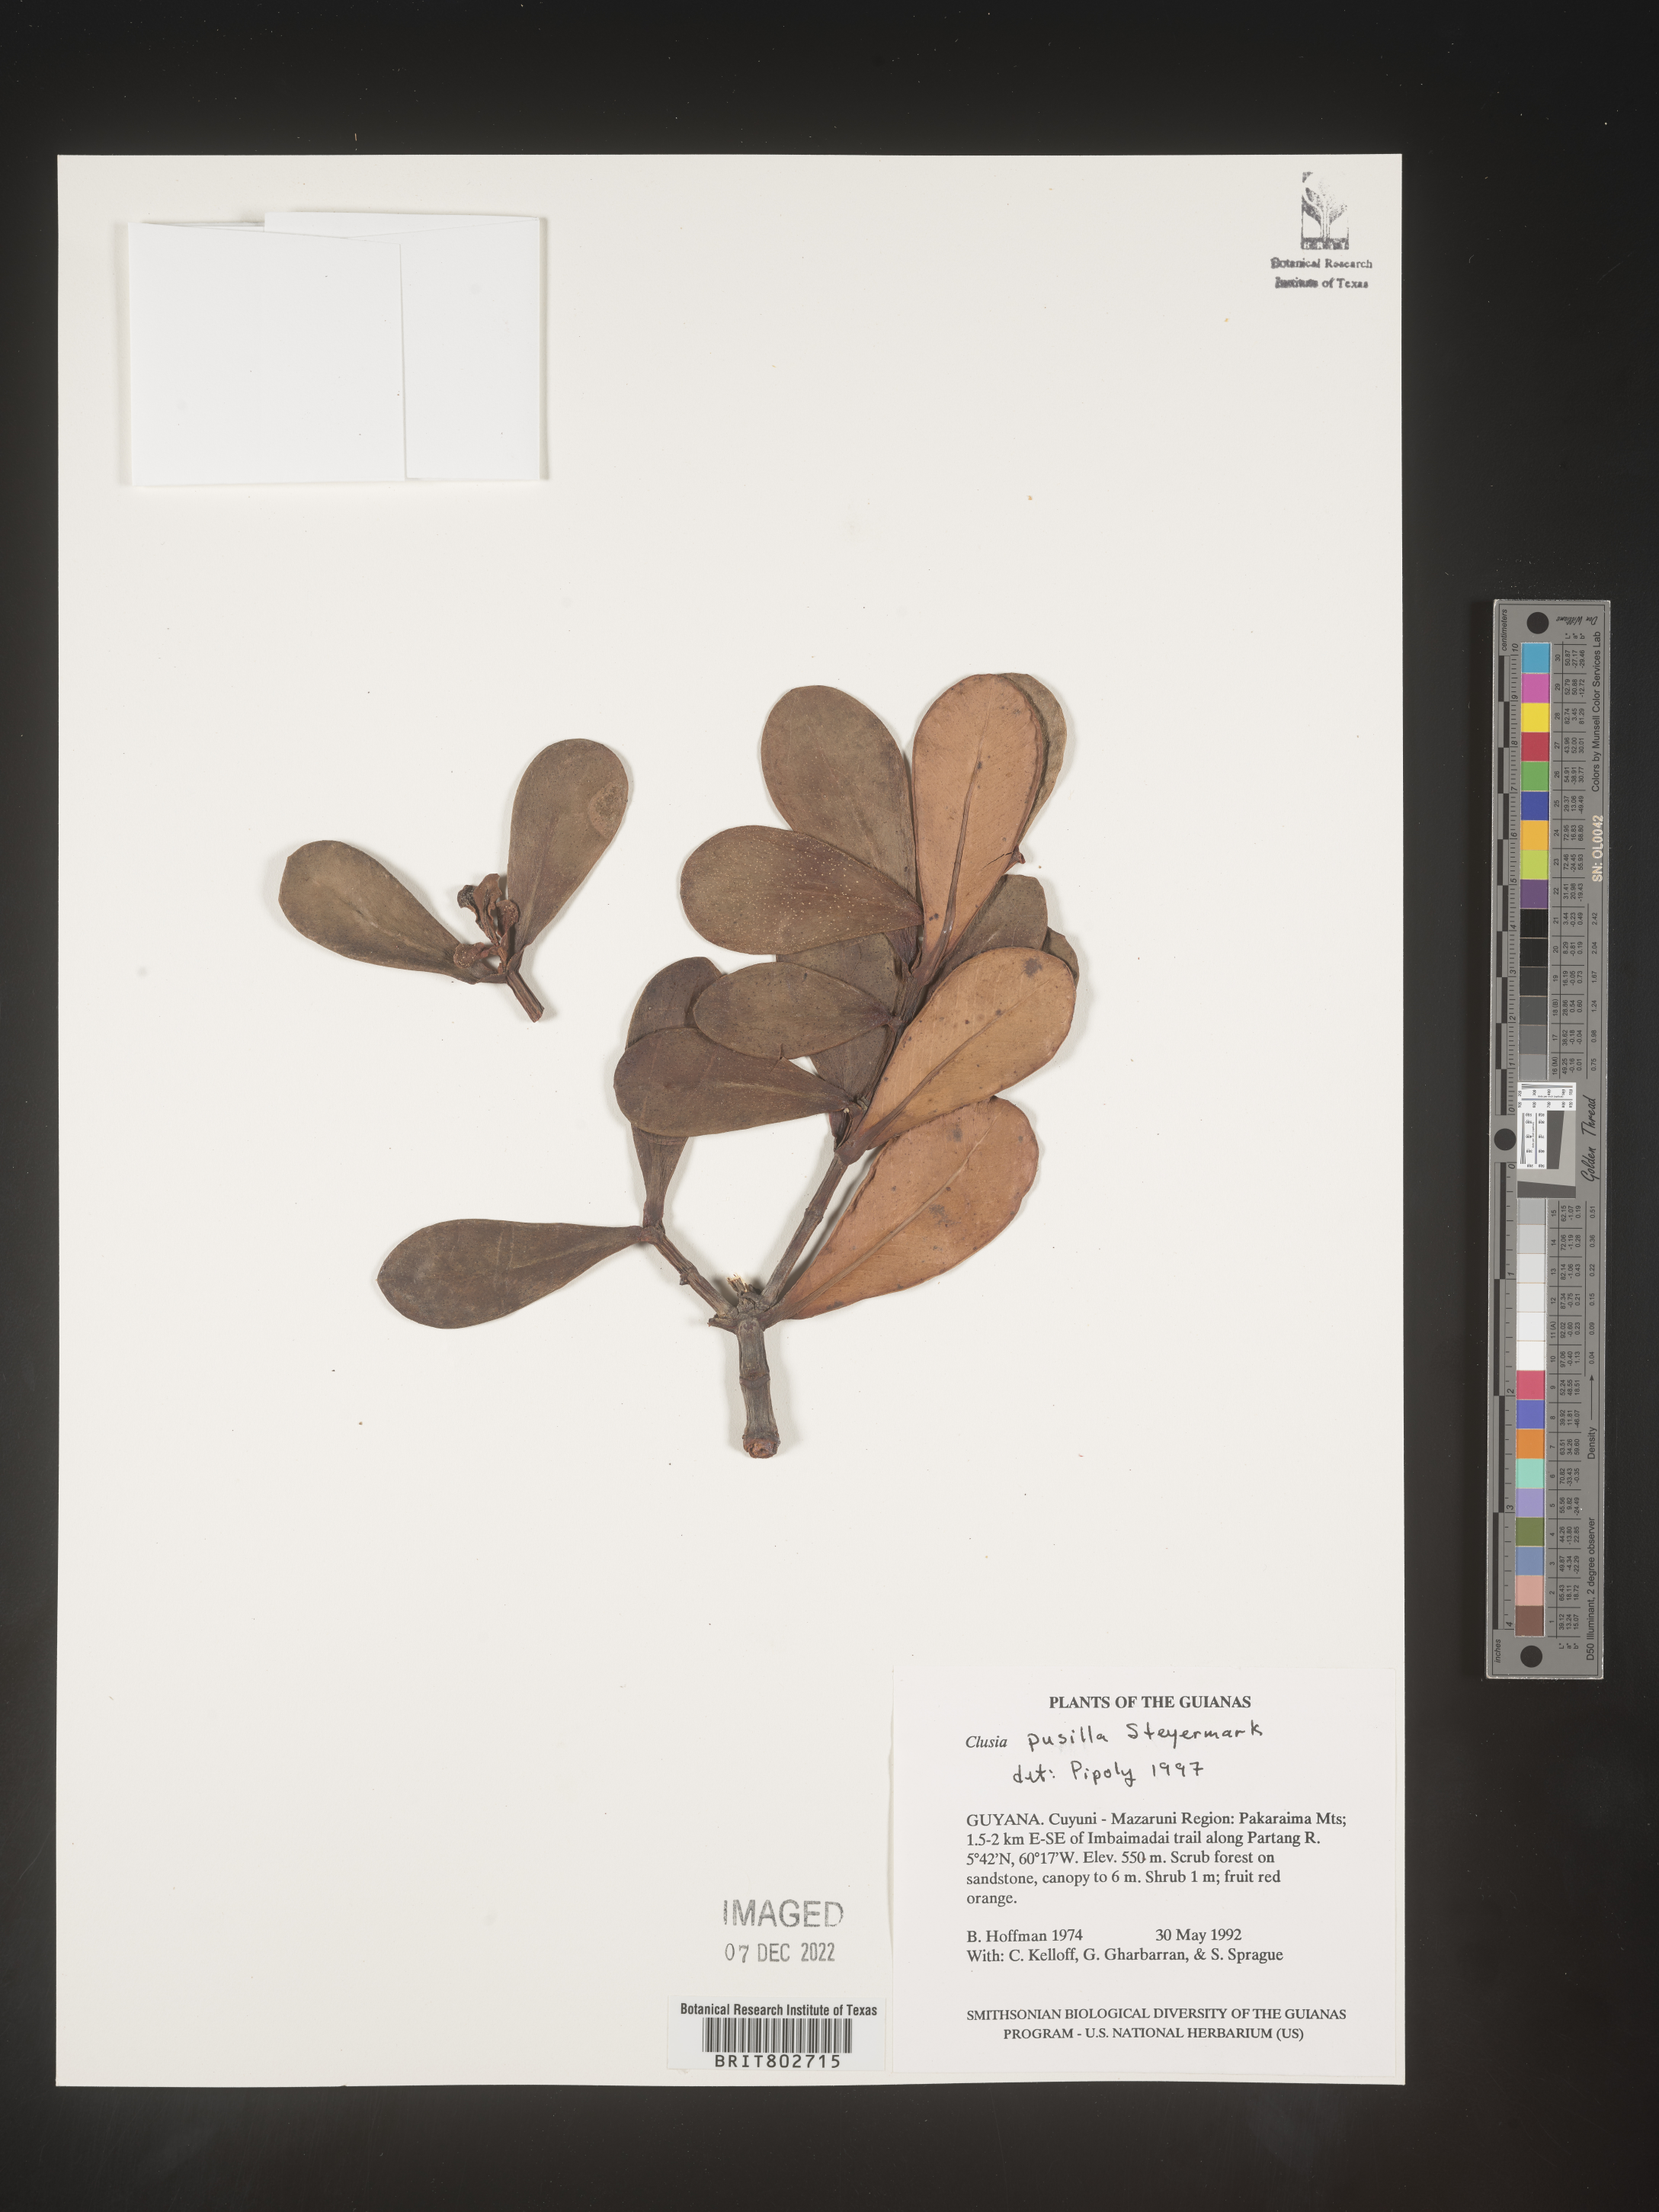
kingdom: Plantae
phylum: Tracheophyta
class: Magnoliopsida
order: Malpighiales
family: Clusiaceae
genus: Clusia
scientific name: Clusia pusilla
